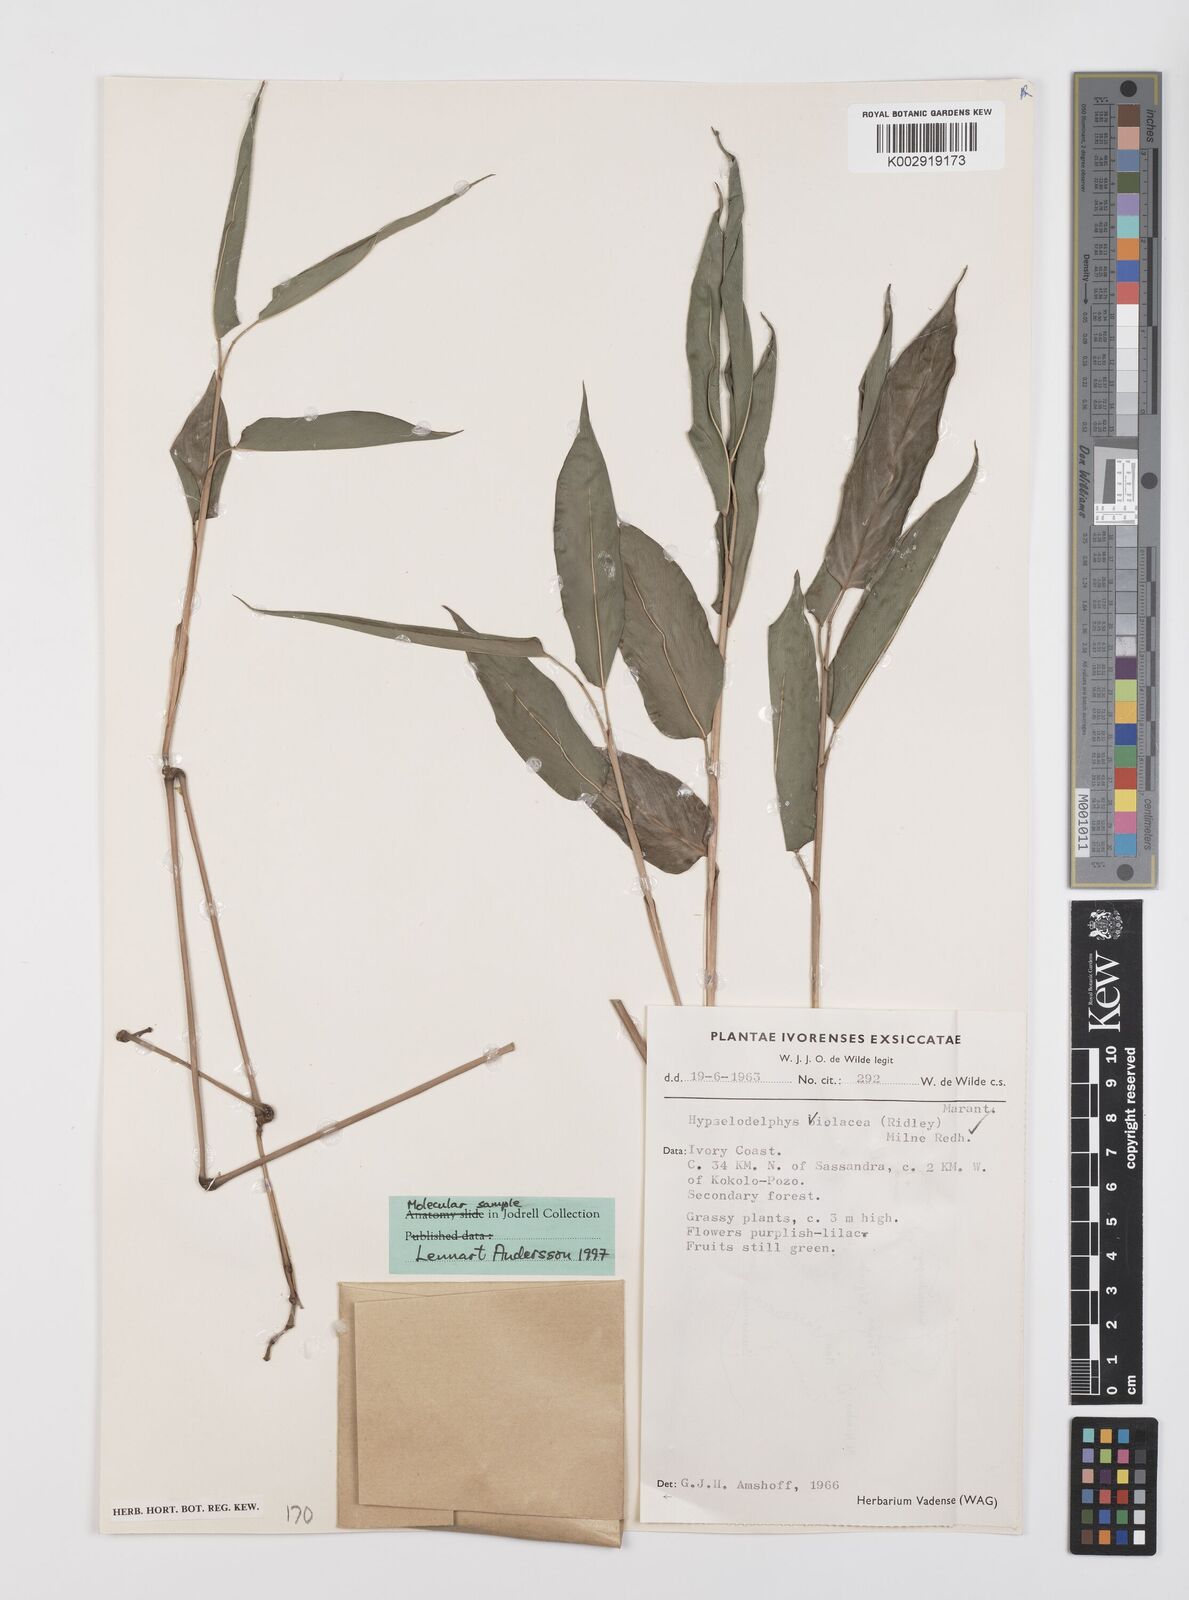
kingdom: Plantae
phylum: Tracheophyta
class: Liliopsida
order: Zingiberales
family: Marantaceae
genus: Hypselodelphys
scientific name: Hypselodelphys violacea
